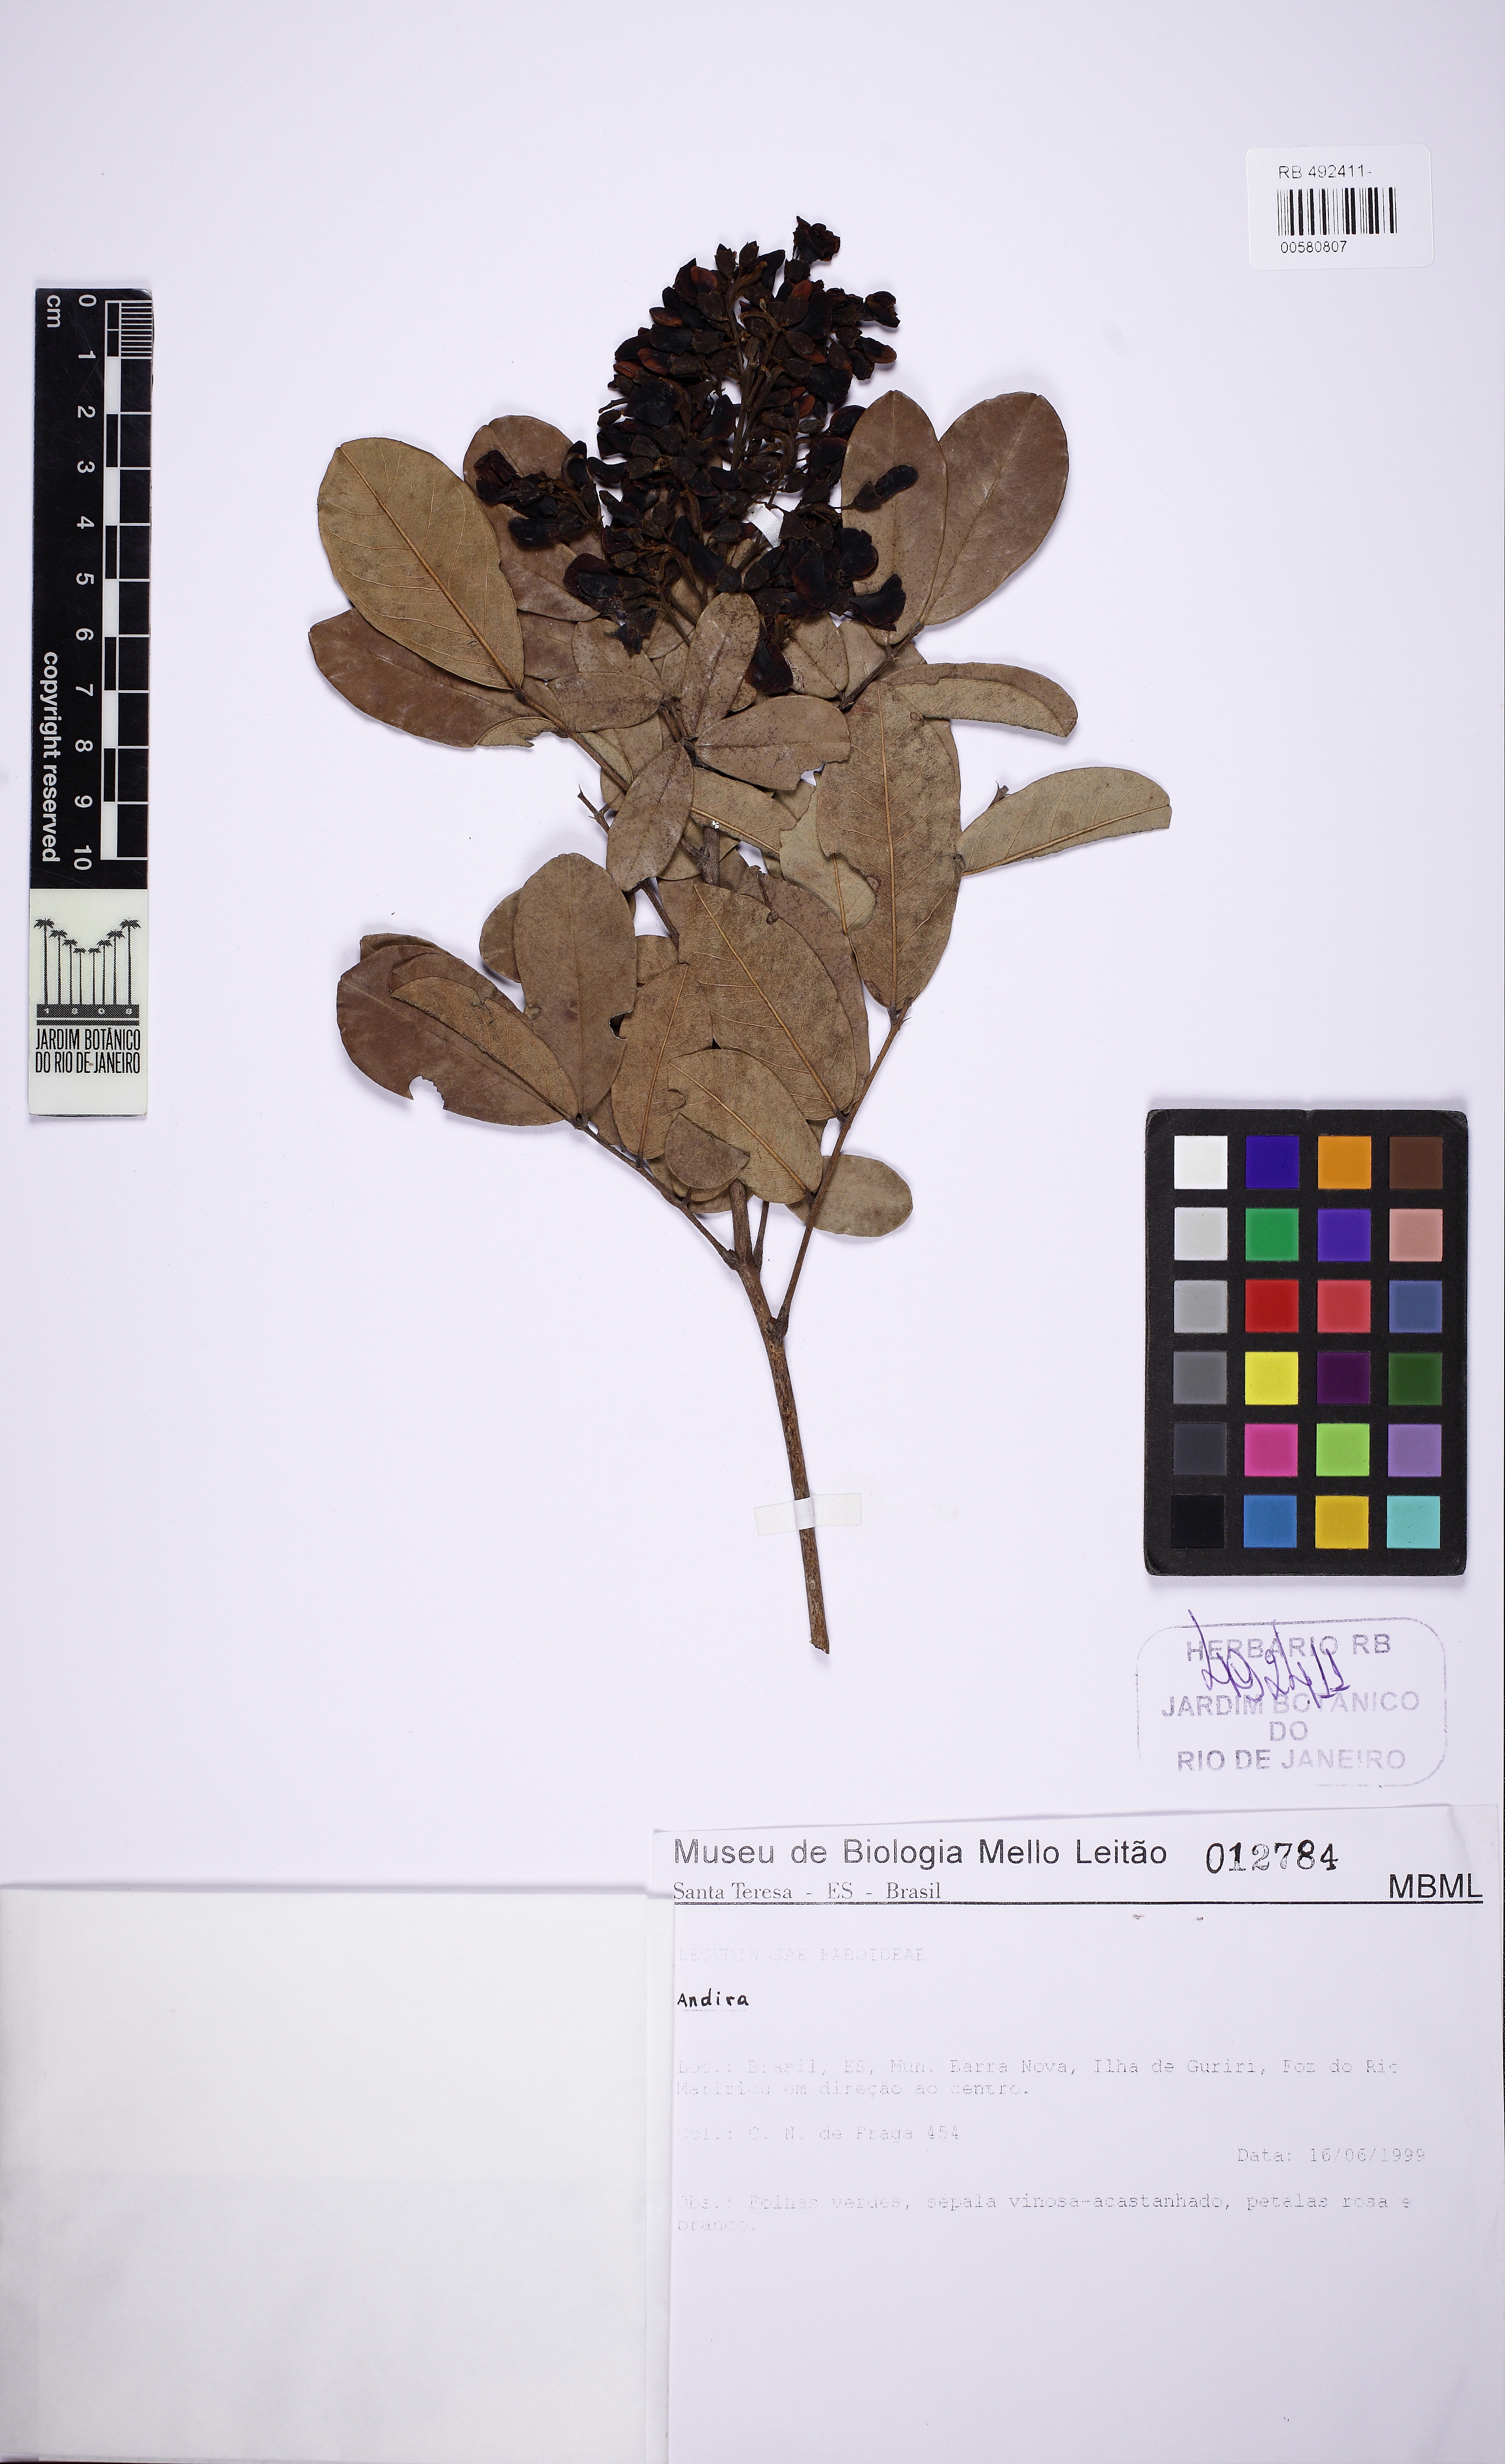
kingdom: Plantae
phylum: Tracheophyta
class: Magnoliopsida
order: Fabales
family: Fabaceae
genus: Andira
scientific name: Andira
